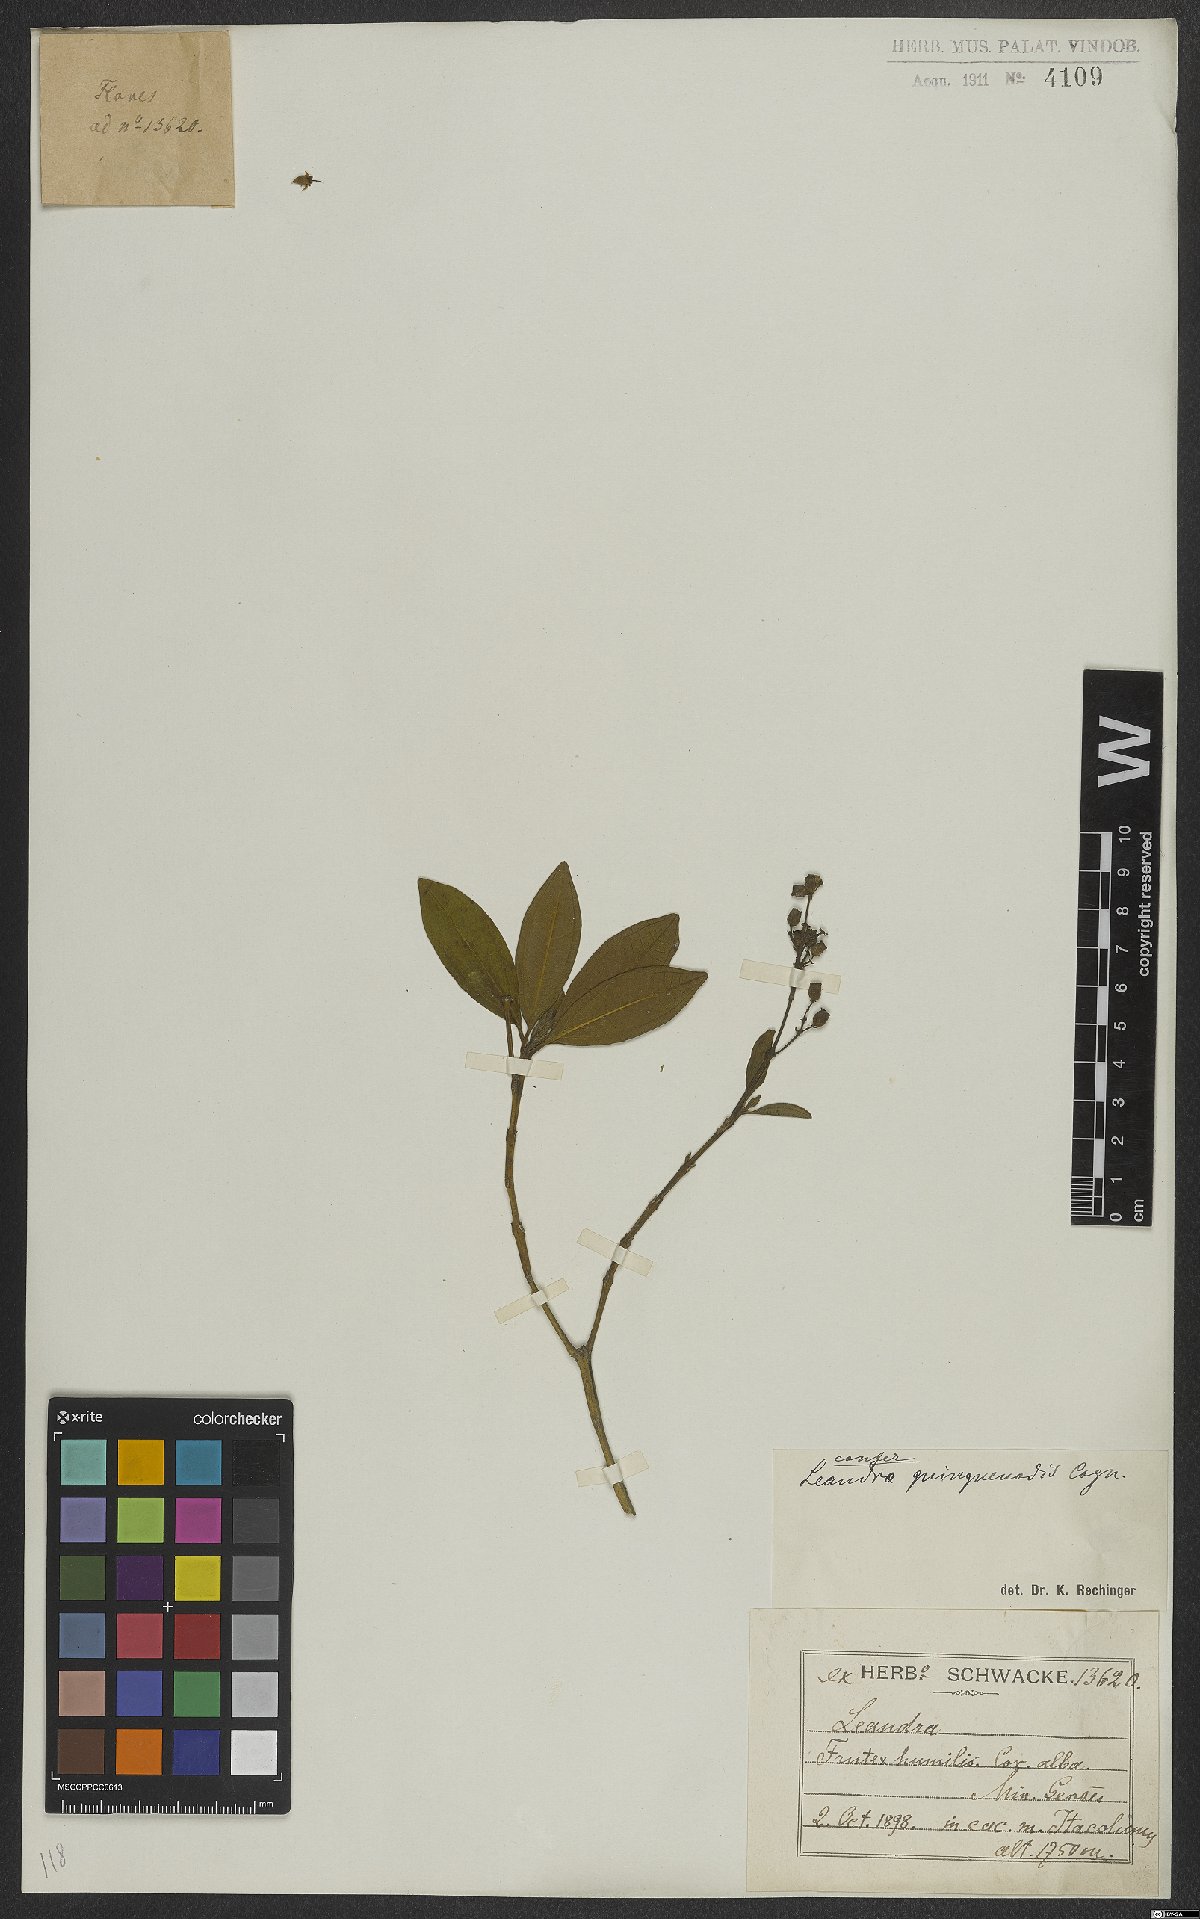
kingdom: Plantae
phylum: Tracheophyta
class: Magnoliopsida
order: Myrtales
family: Melastomataceae
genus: Miconia
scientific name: Miconia quinquenodis
